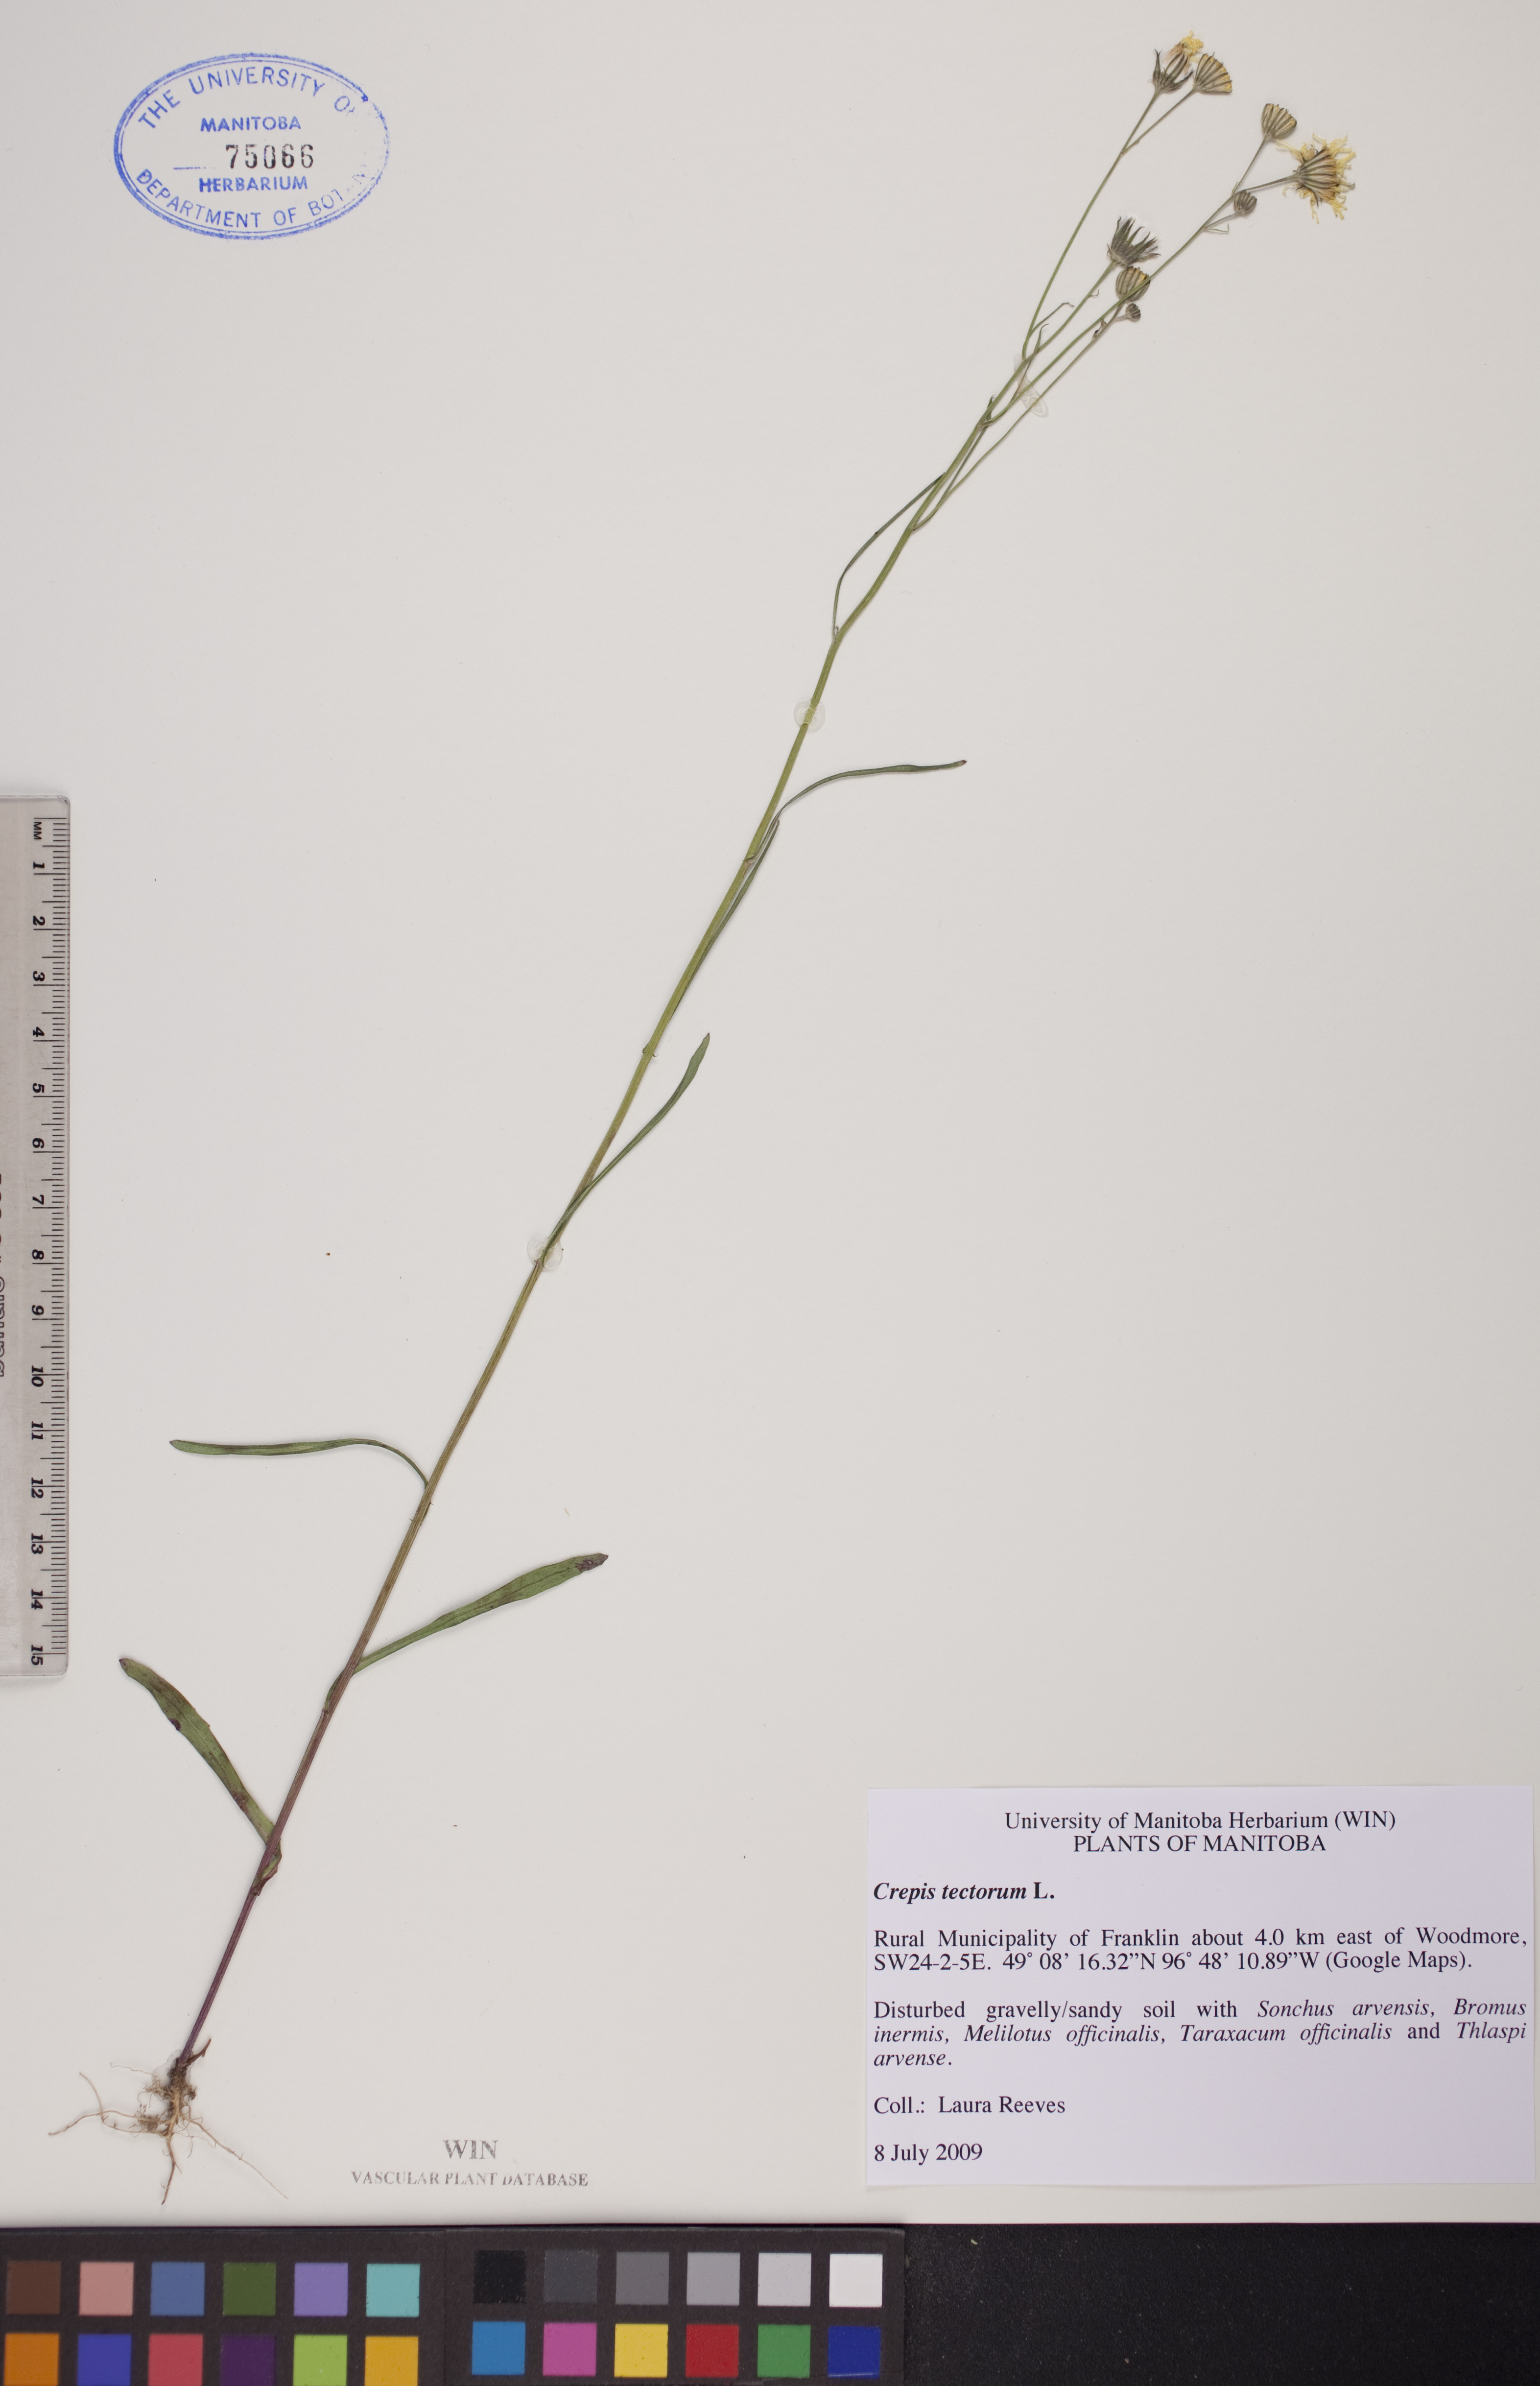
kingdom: Plantae
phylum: Tracheophyta
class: Magnoliopsida
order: Asterales
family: Asteraceae
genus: Crepis
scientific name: Crepis tectorum
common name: Narrow-leaved hawk's-beard
